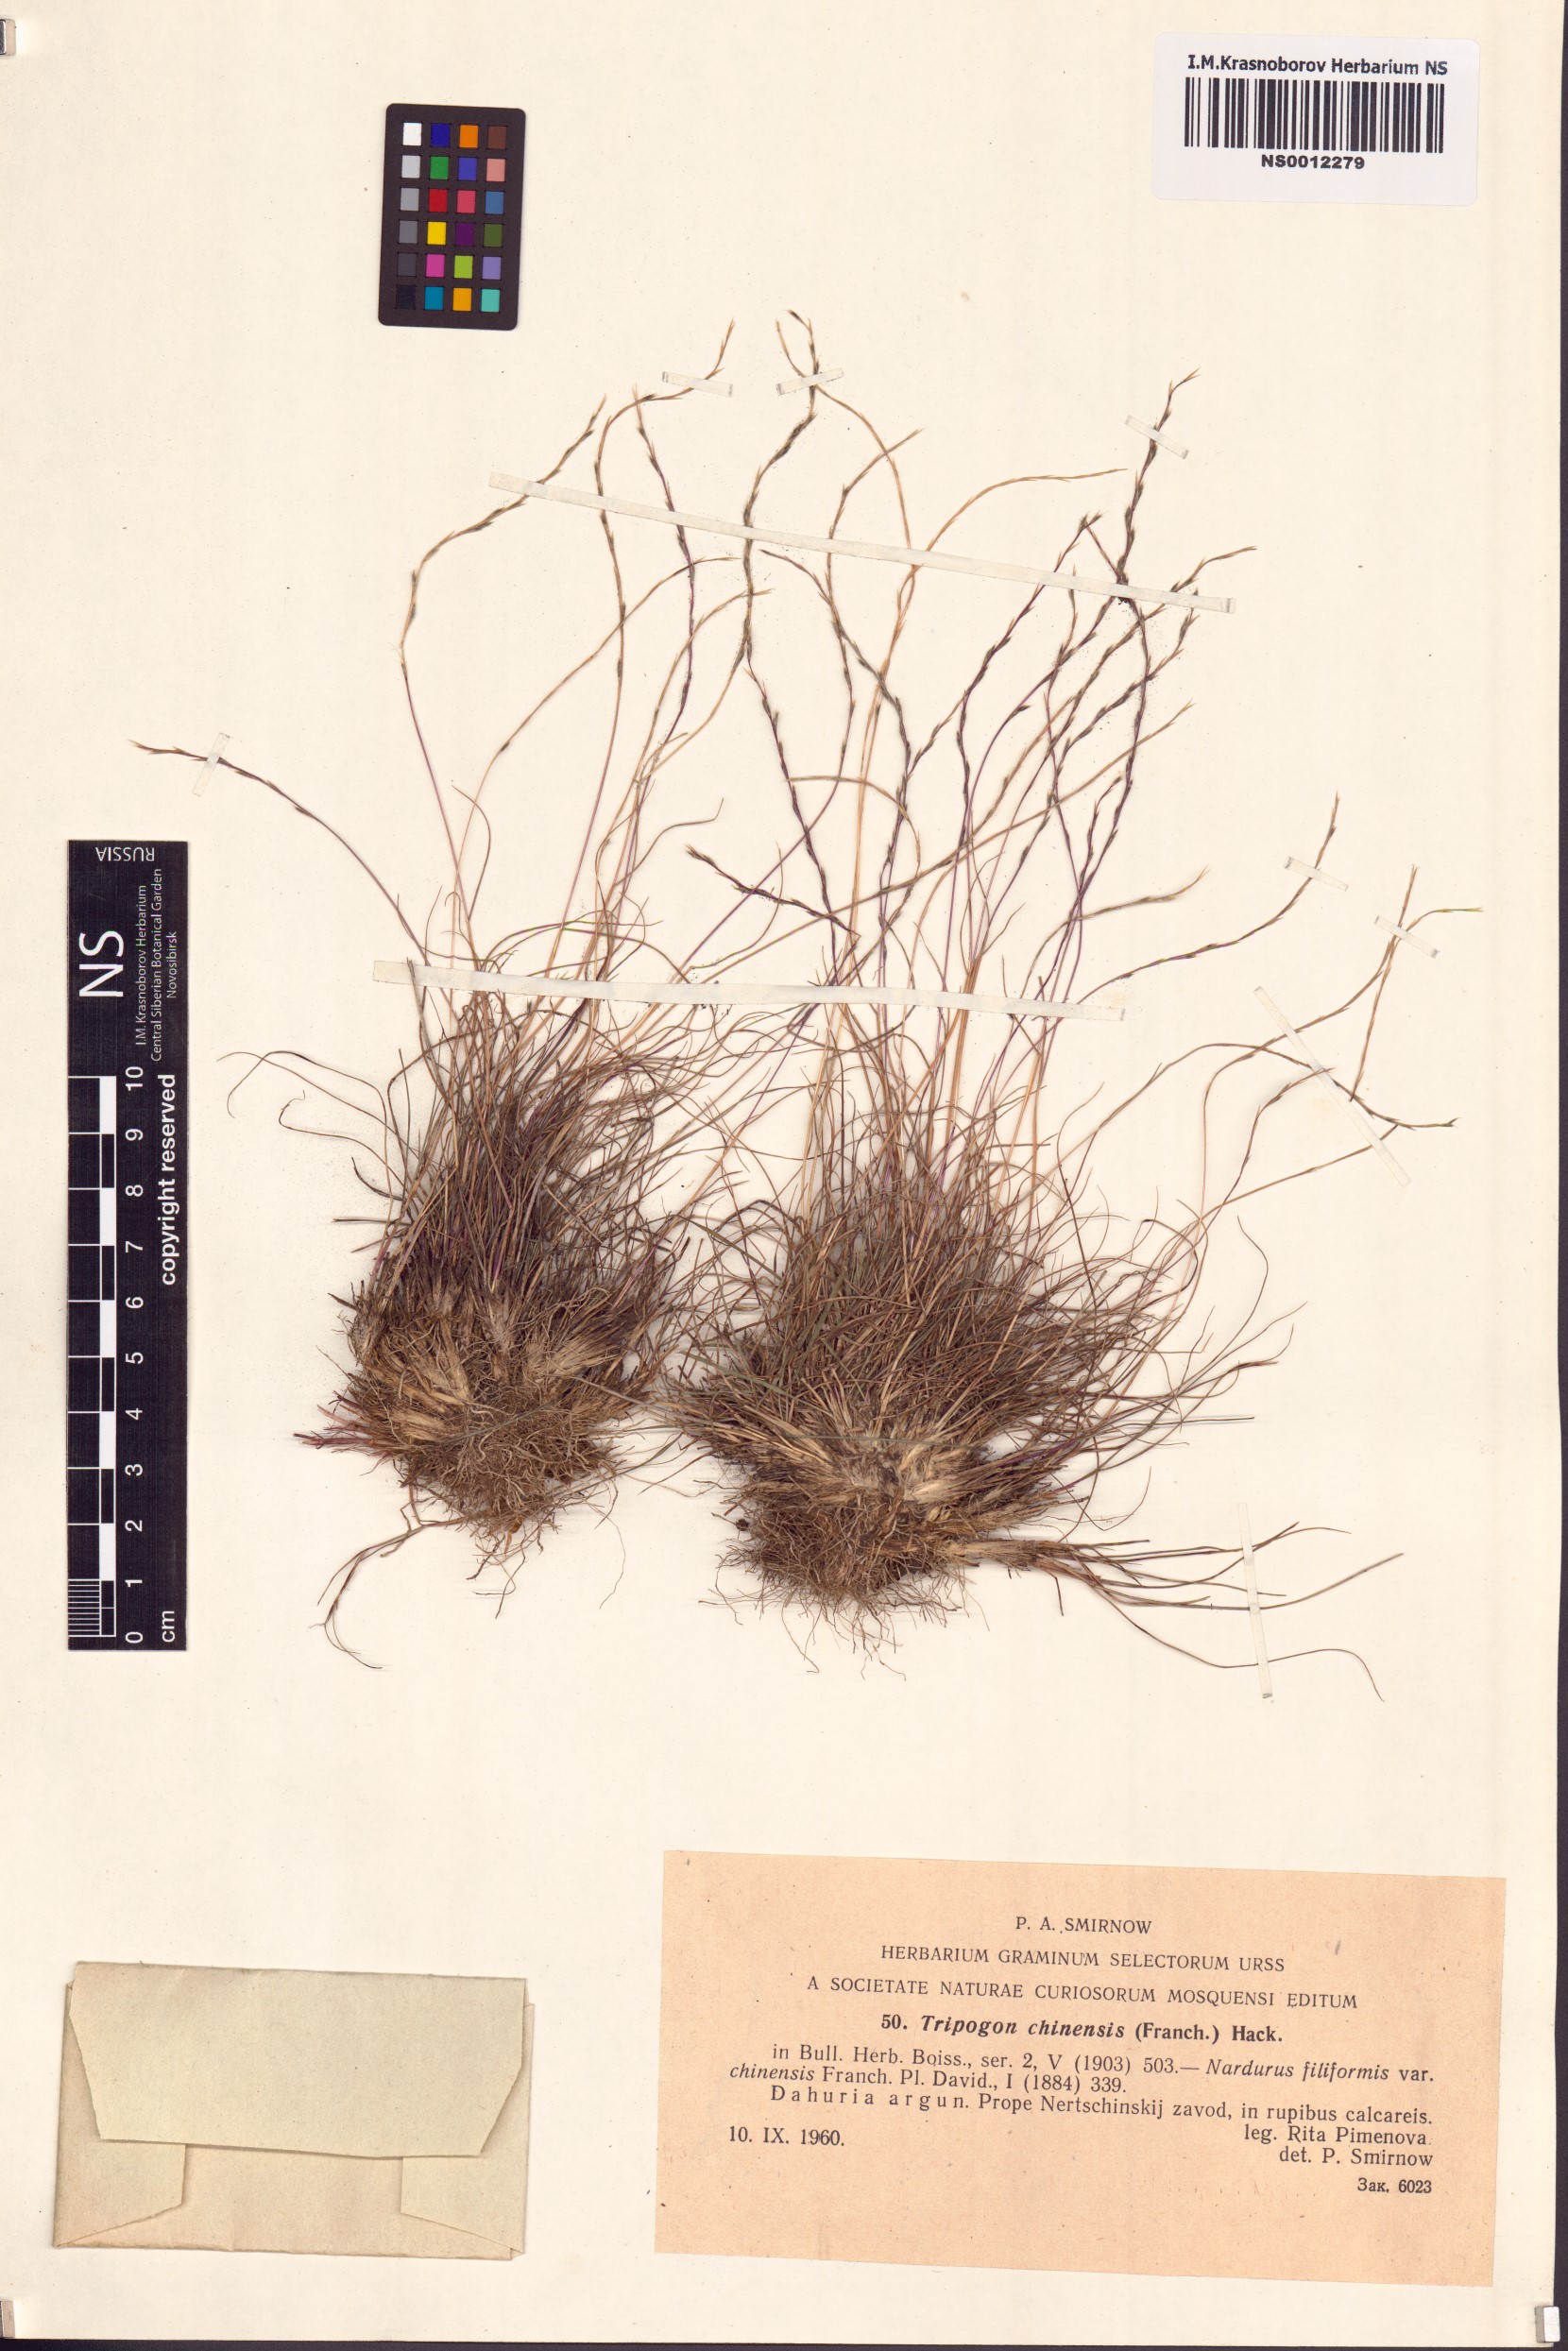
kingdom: Plantae
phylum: Tracheophyta
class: Liliopsida
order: Poales
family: Poaceae
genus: Tripogon
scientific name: Tripogon chinensis
